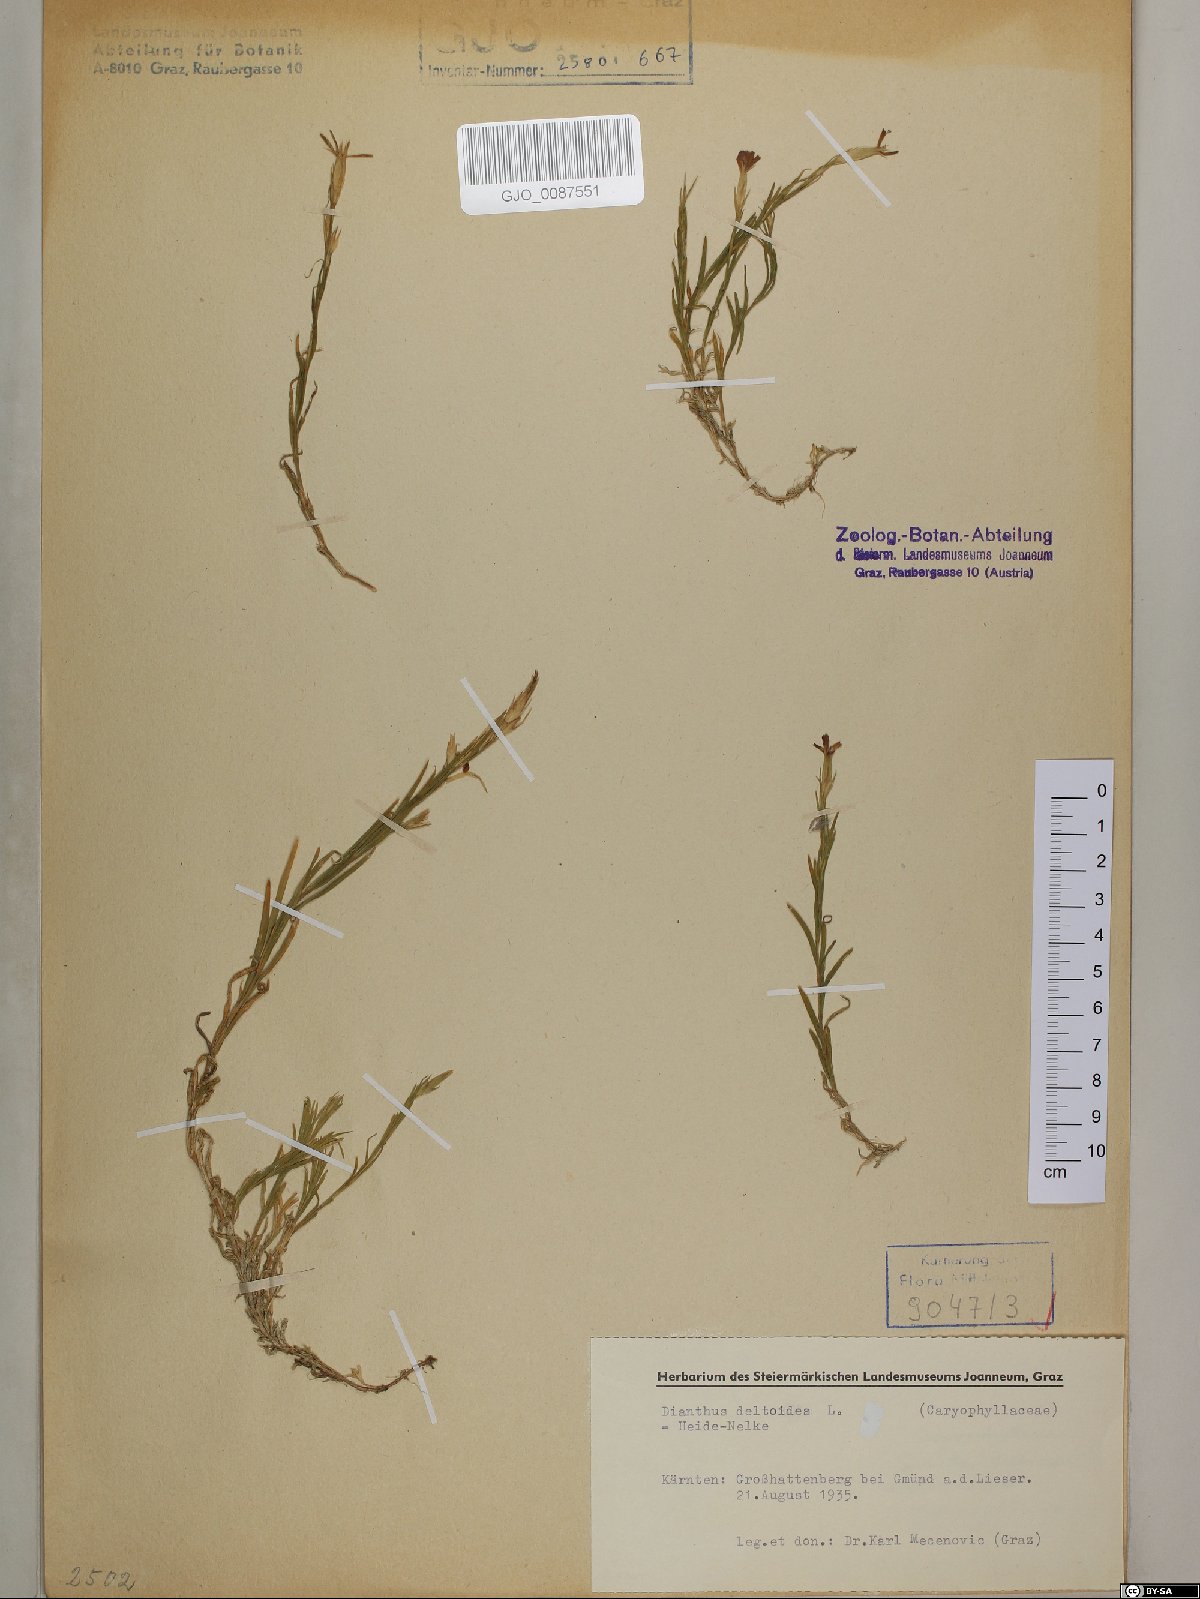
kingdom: Plantae
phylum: Tracheophyta
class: Magnoliopsida
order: Caryophyllales
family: Caryophyllaceae
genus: Dianthus
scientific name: Dianthus deltoides
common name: Maiden pink
